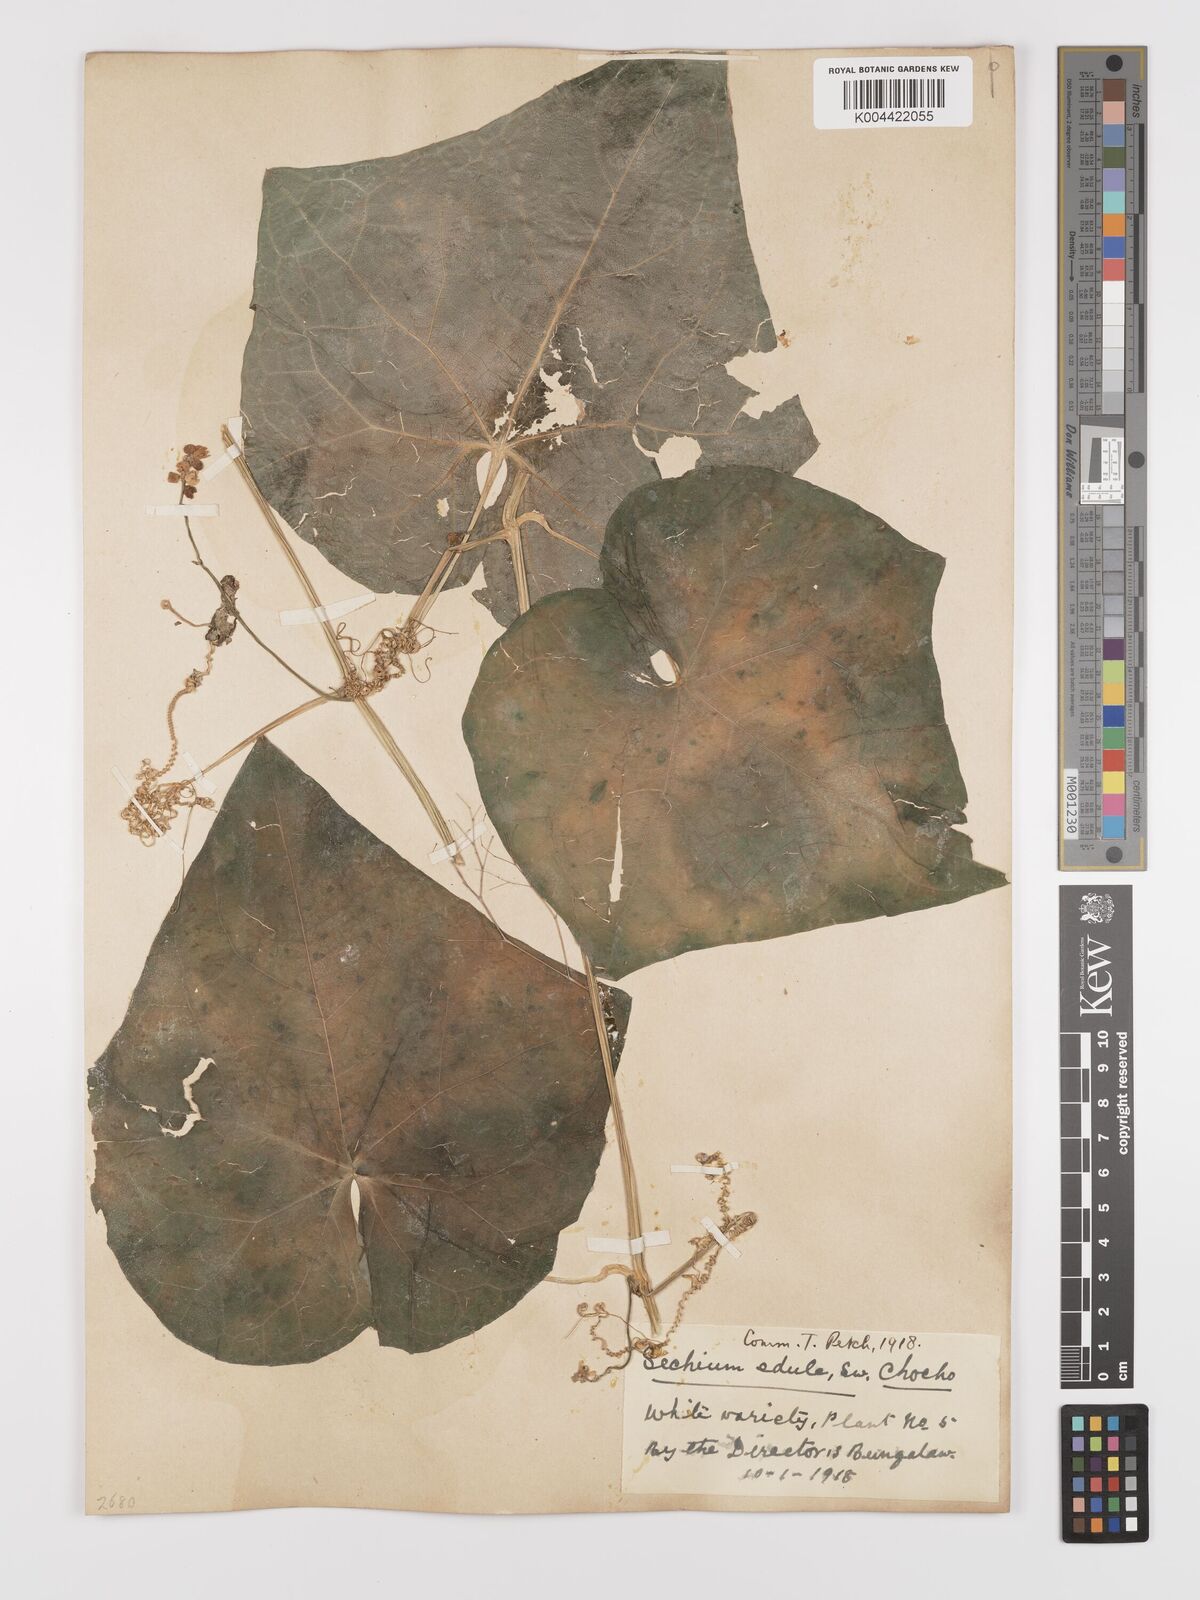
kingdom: Plantae
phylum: Tracheophyta
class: Magnoliopsida
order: Cucurbitales
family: Cucurbitaceae
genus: Sechium
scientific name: Sechium edule
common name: Chayote
